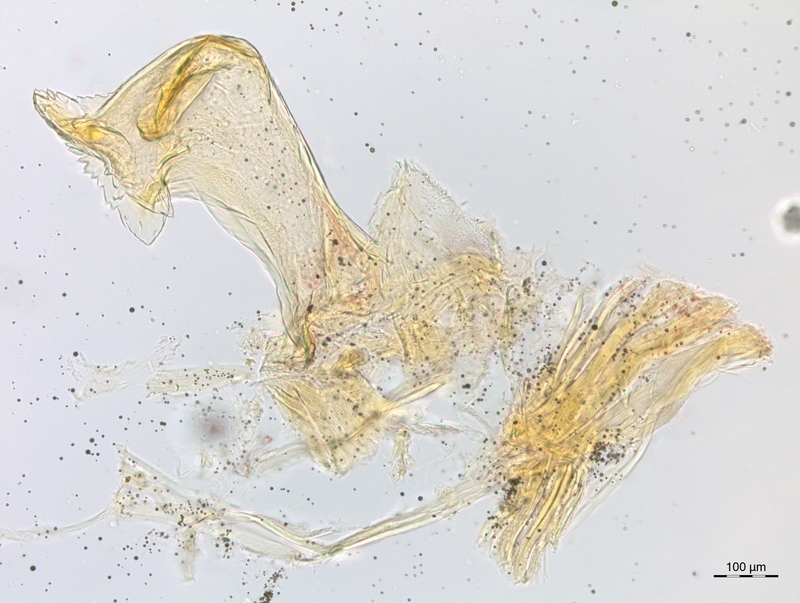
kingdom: Animalia
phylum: Arthropoda
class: Diplopoda
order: Chordeumatida
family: Craspedosomatidae
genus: Craspedosoma
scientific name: Craspedosoma brentanum
